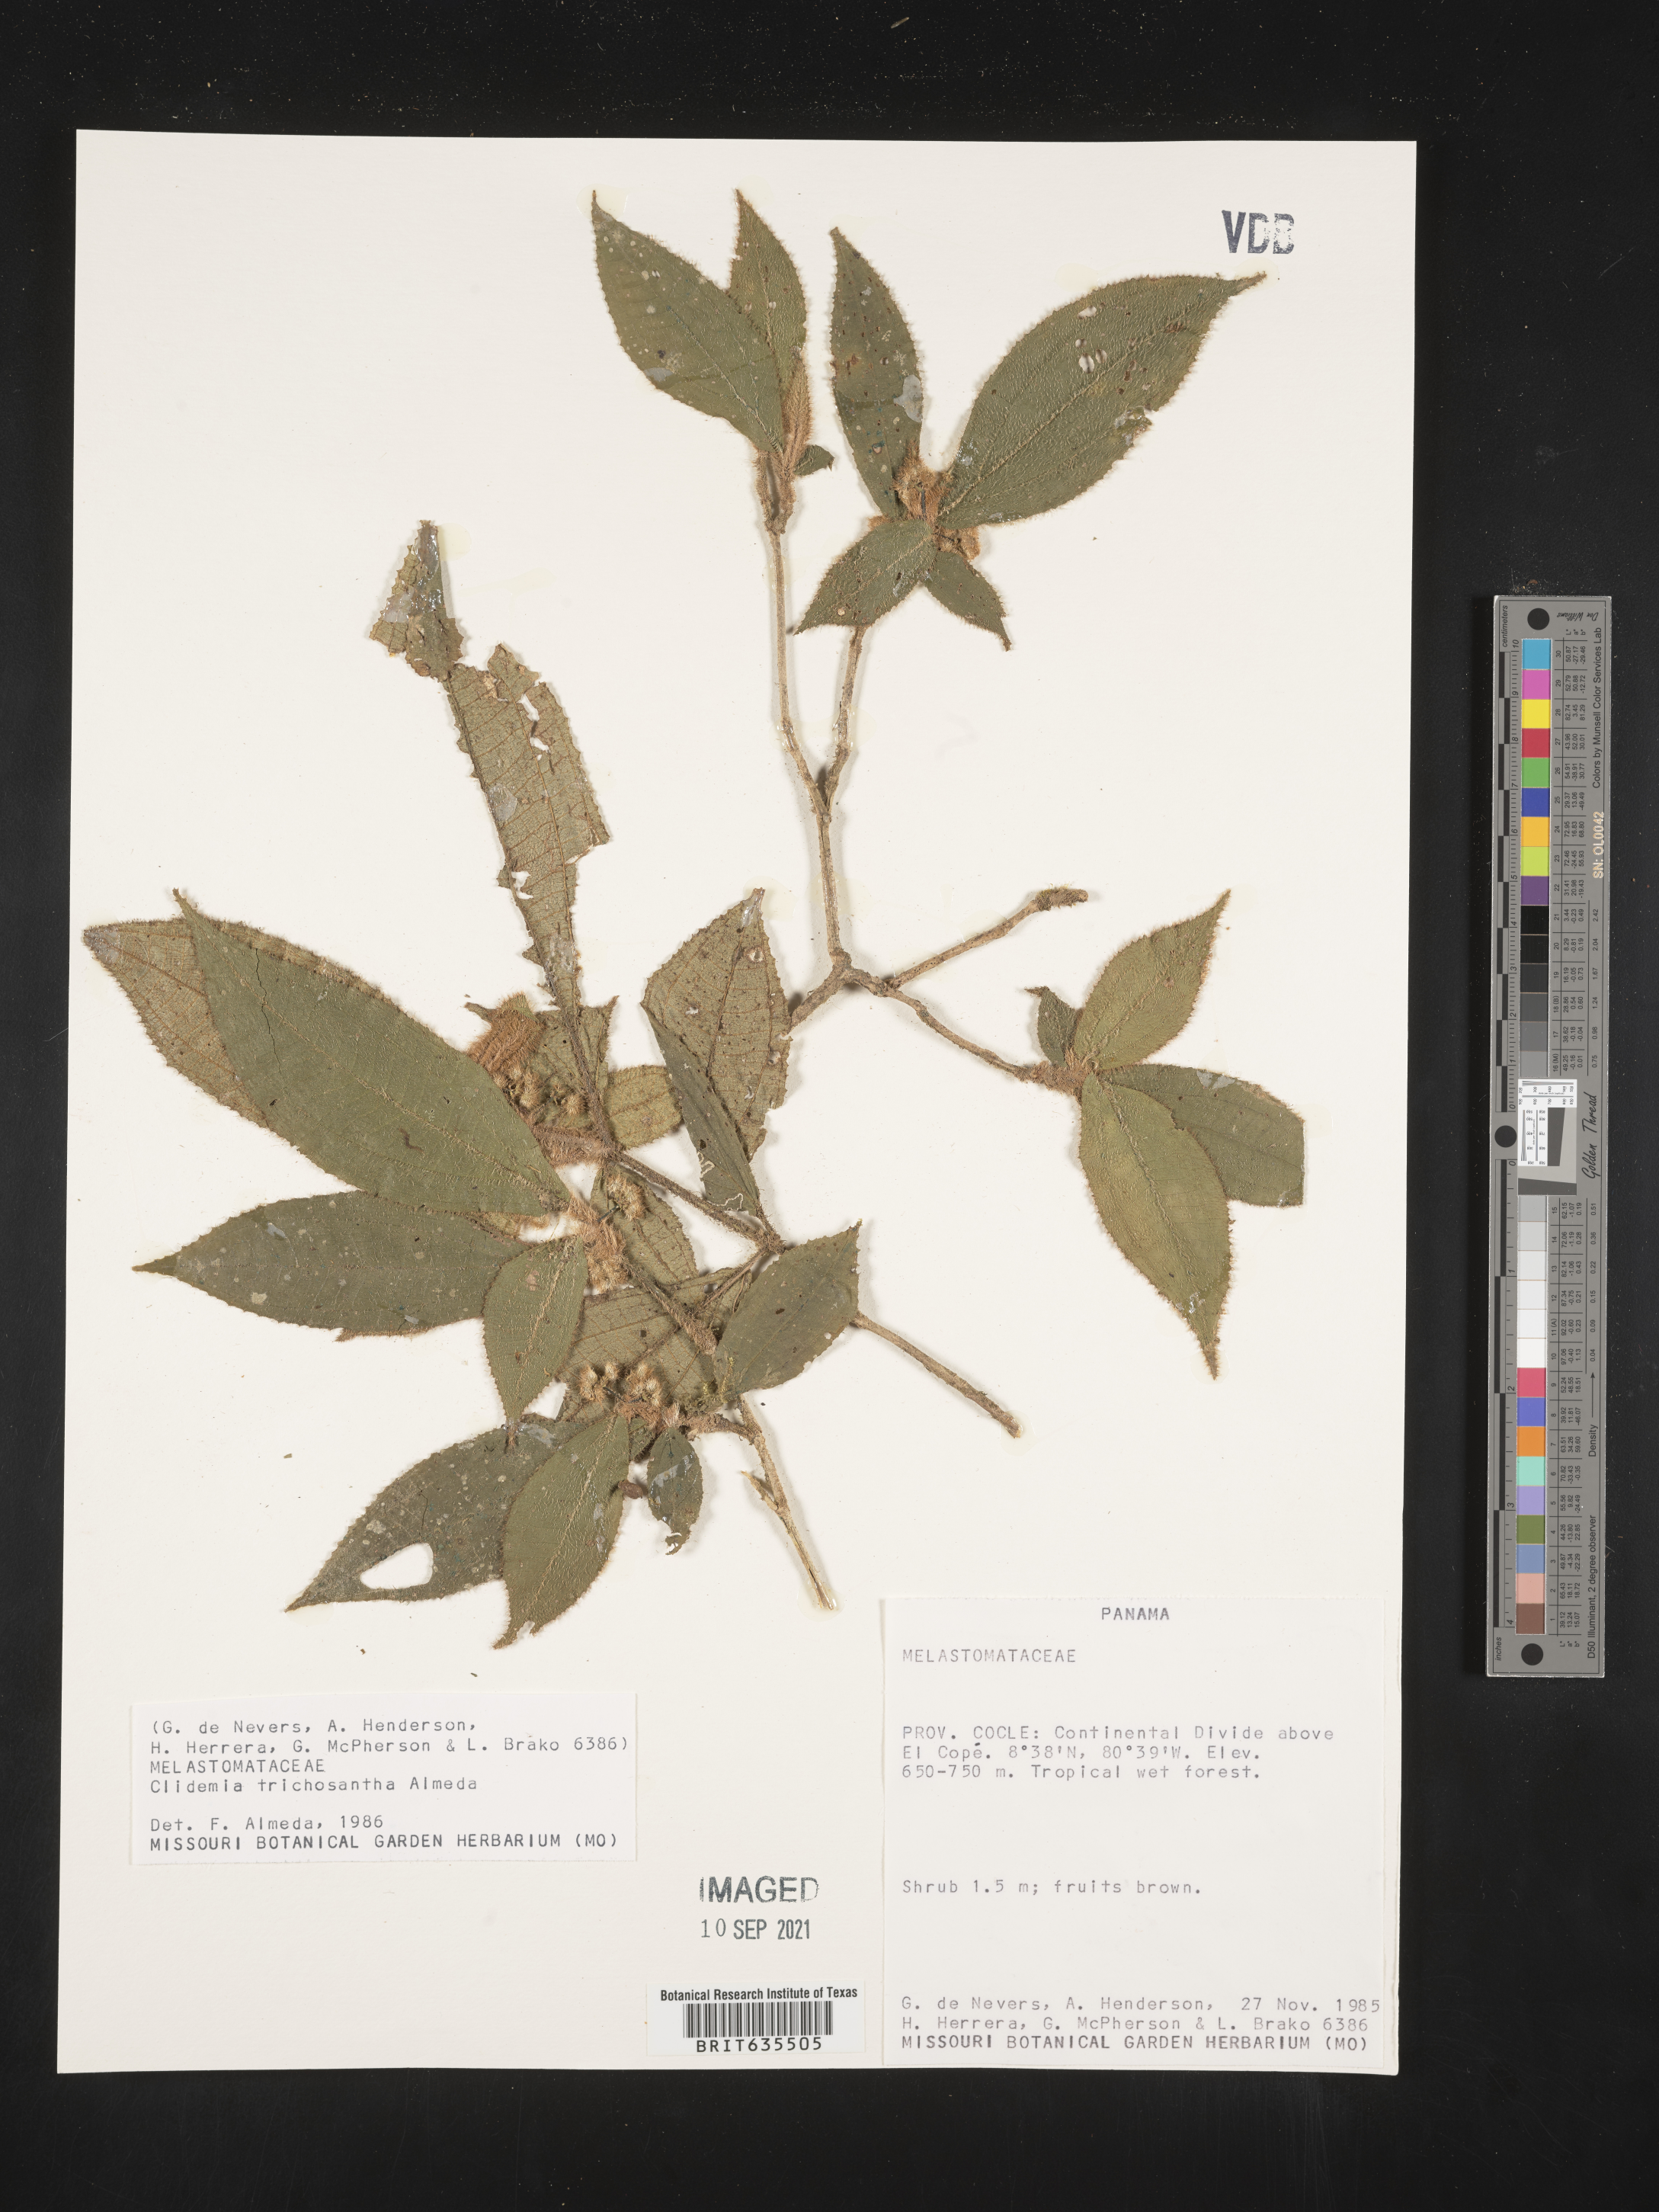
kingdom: Plantae
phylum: Tracheophyta
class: Magnoliopsida
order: Myrtales
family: Melastomataceae
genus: Miconia
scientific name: Miconia
